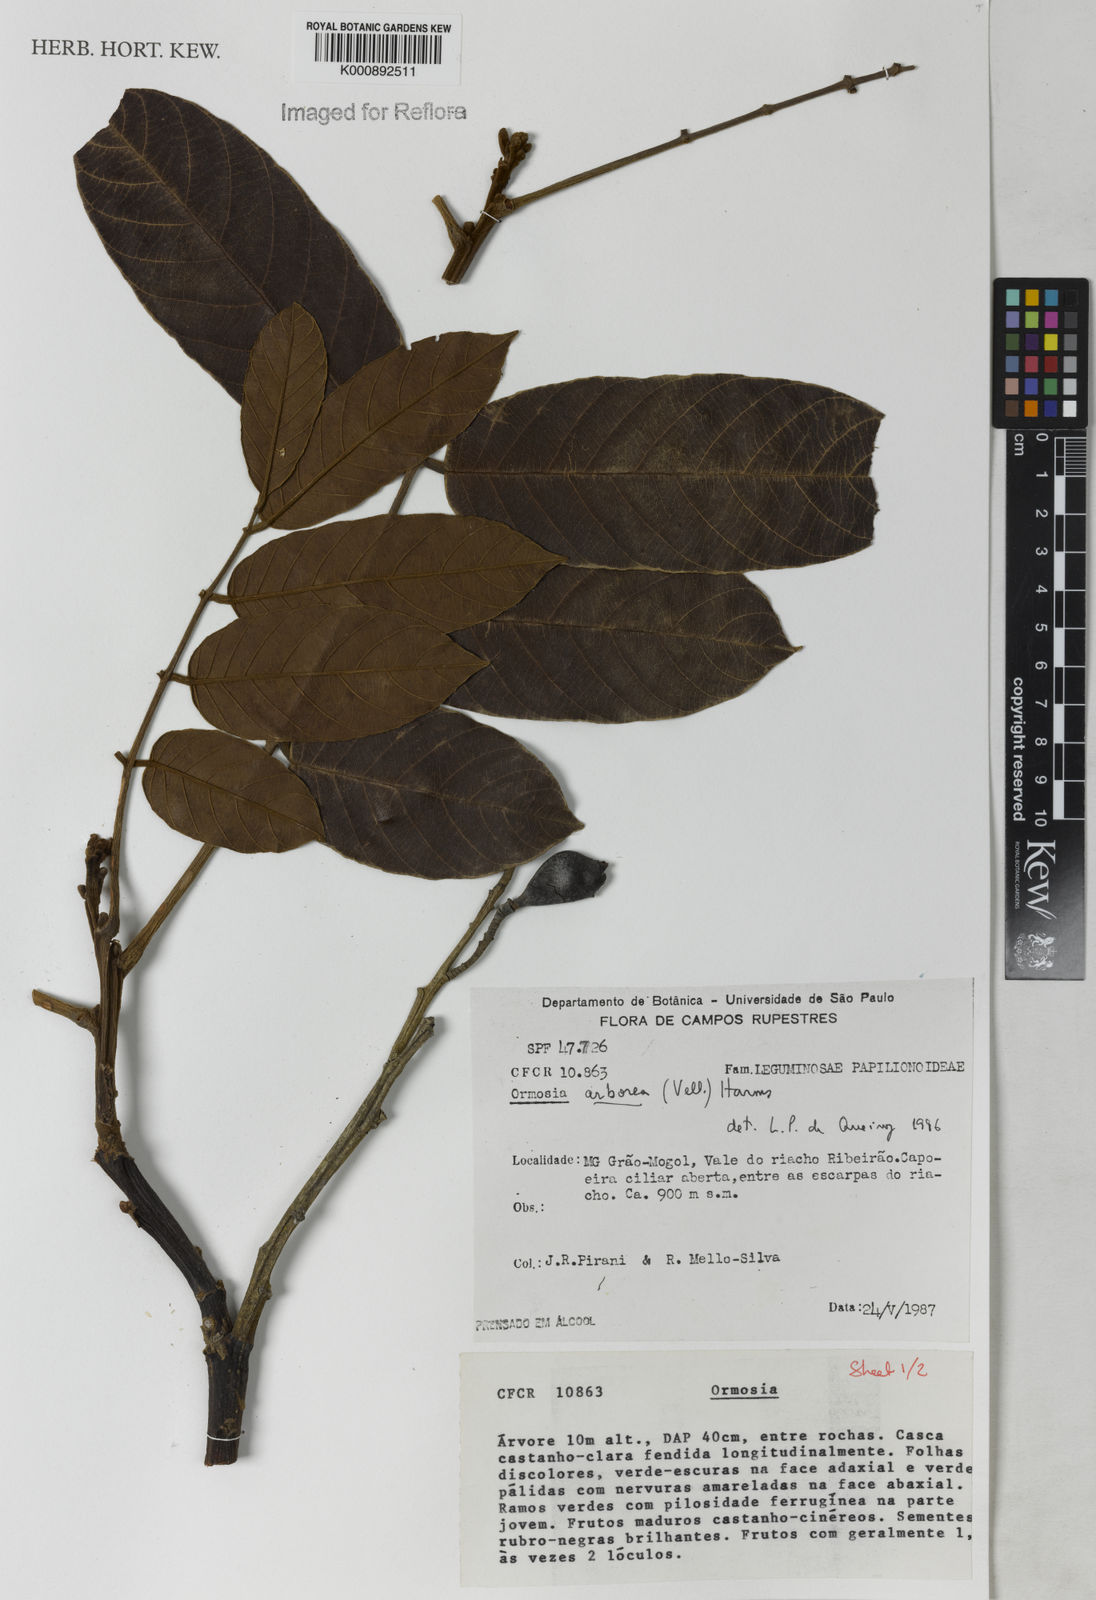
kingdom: Plantae
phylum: Tracheophyta
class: Magnoliopsida
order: Fabales
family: Fabaceae
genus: Ormosia
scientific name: Ormosia arborea
